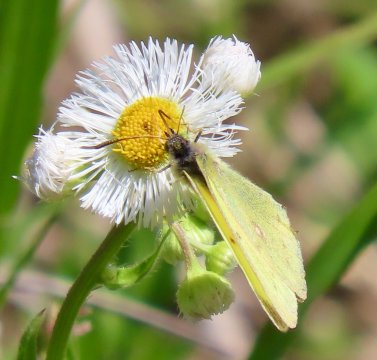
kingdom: Animalia
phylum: Arthropoda
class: Insecta
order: Lepidoptera
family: Pieridae
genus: Colias
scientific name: Colias philodice
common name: Clouded Sulphur
